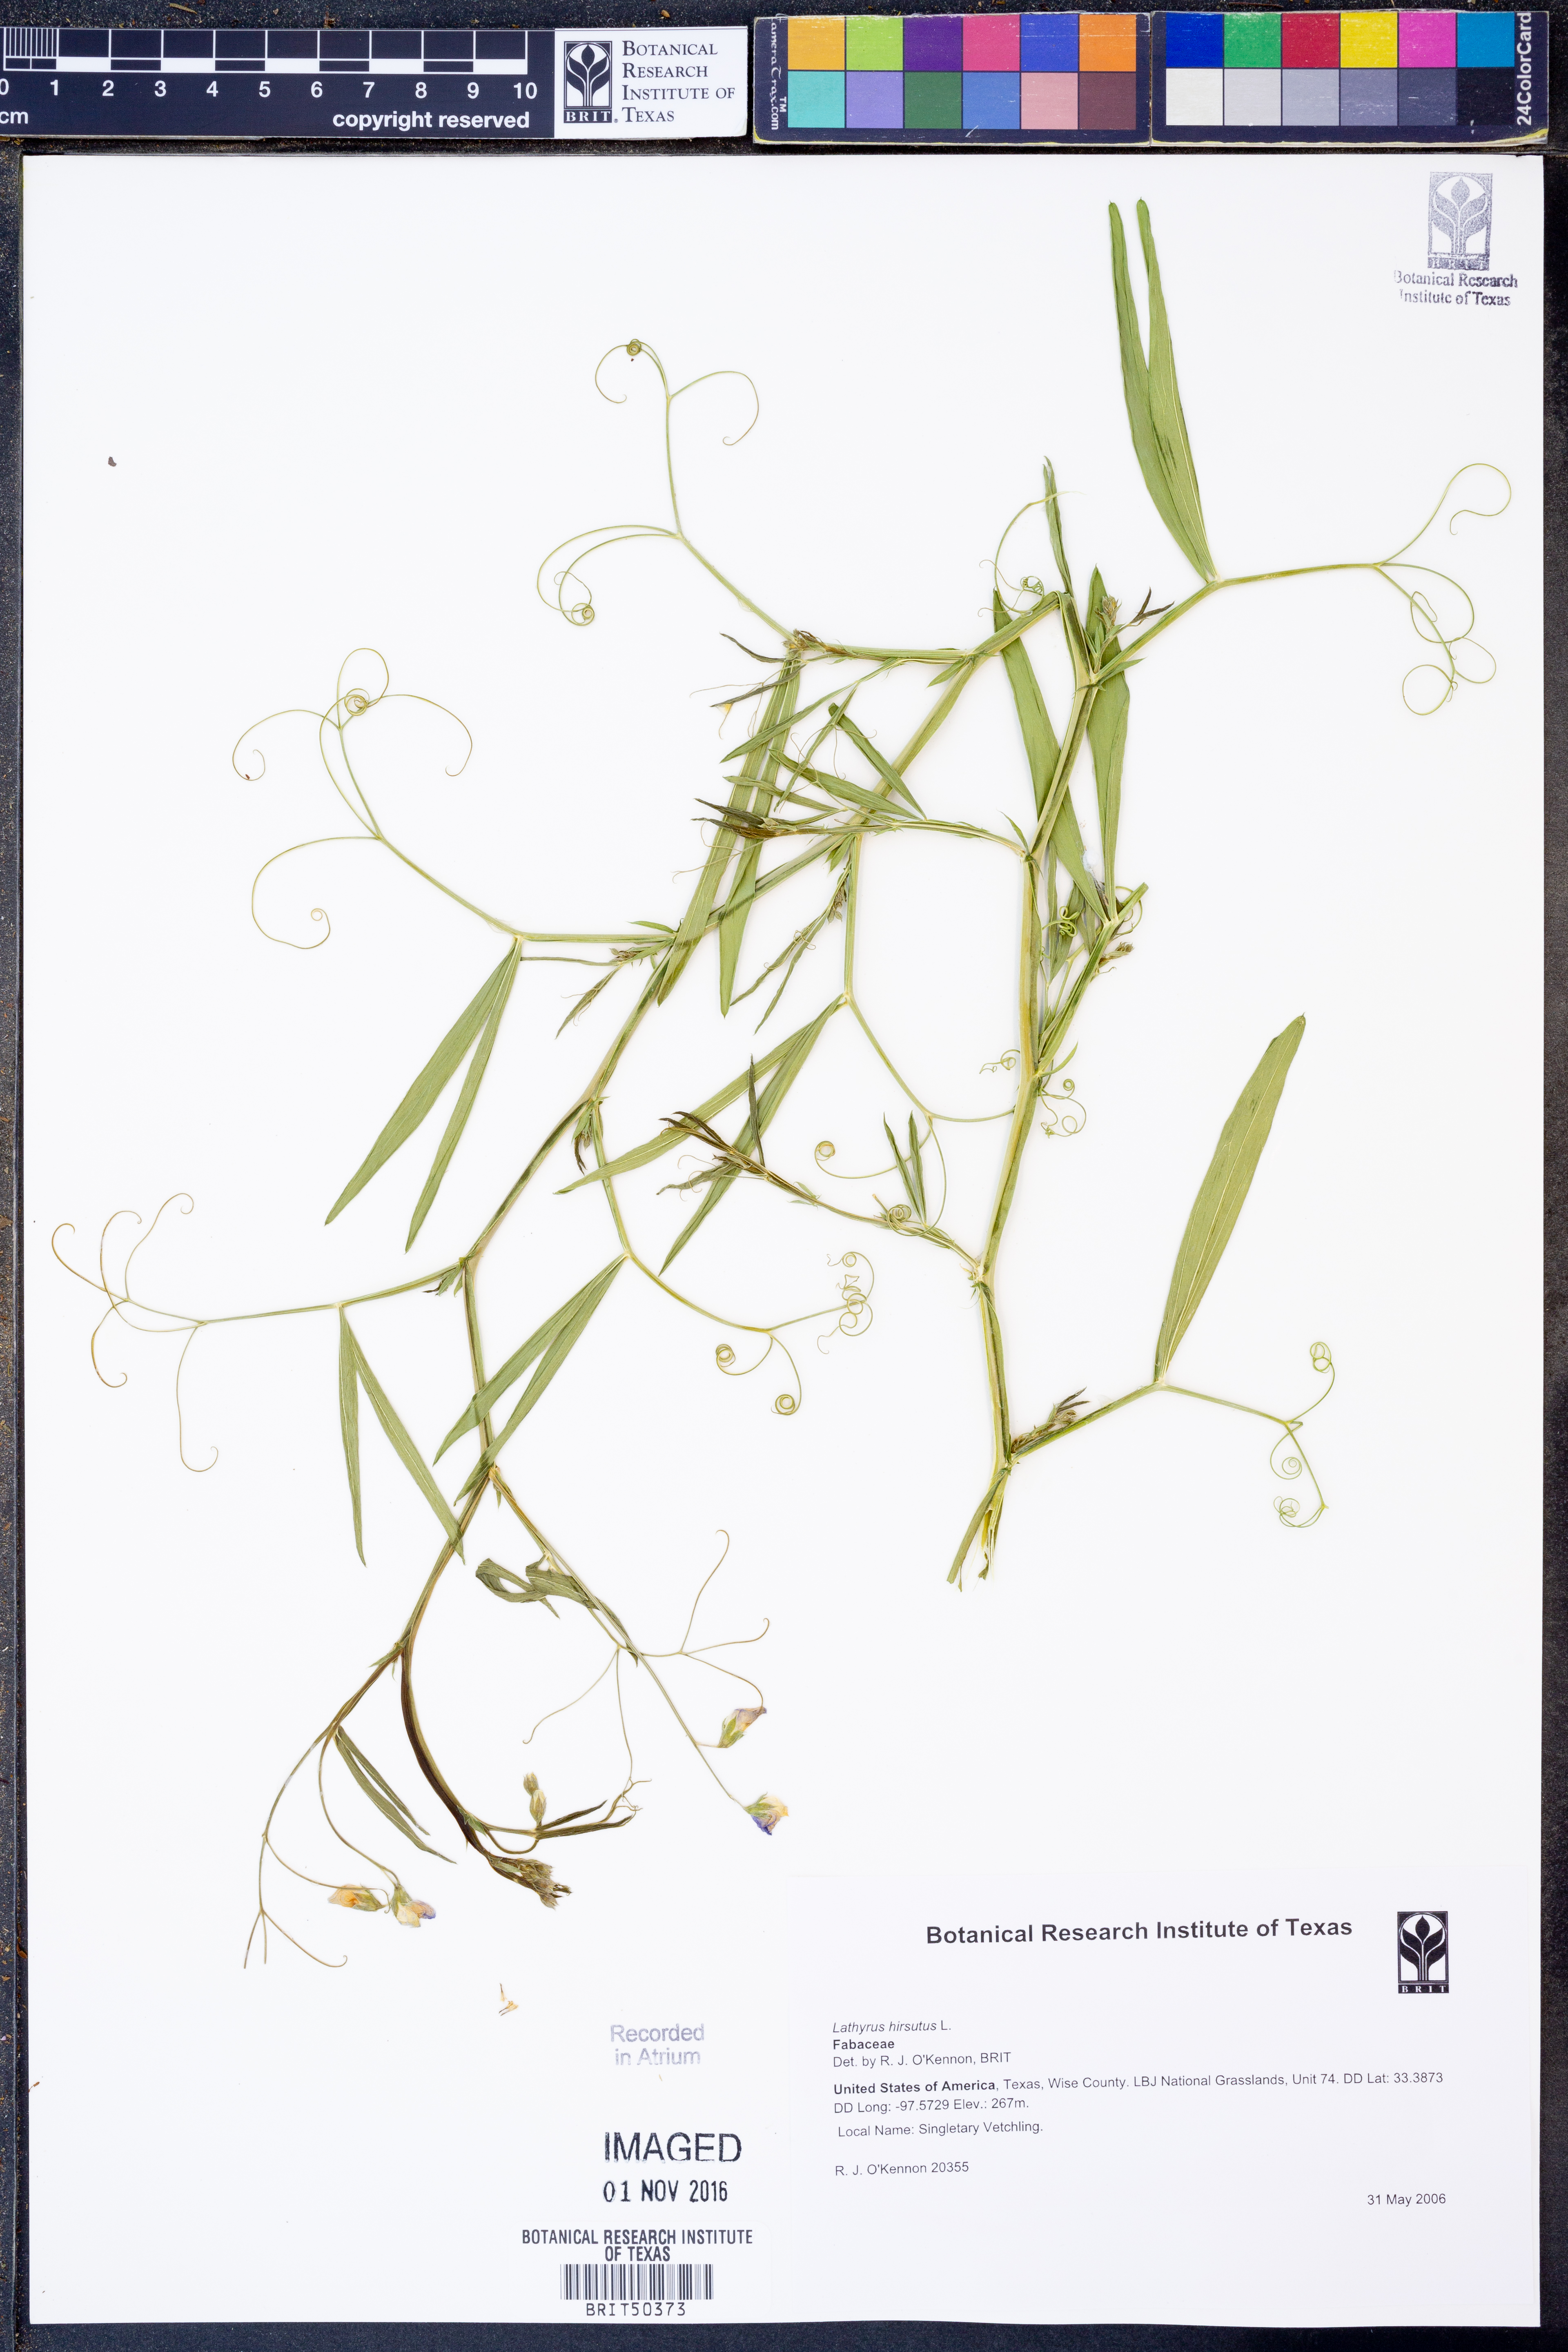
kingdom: Plantae
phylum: Tracheophyta
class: Magnoliopsida
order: Fabales
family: Fabaceae
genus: Lathyrus
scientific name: Lathyrus hirsutus
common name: Hairy vetchling
